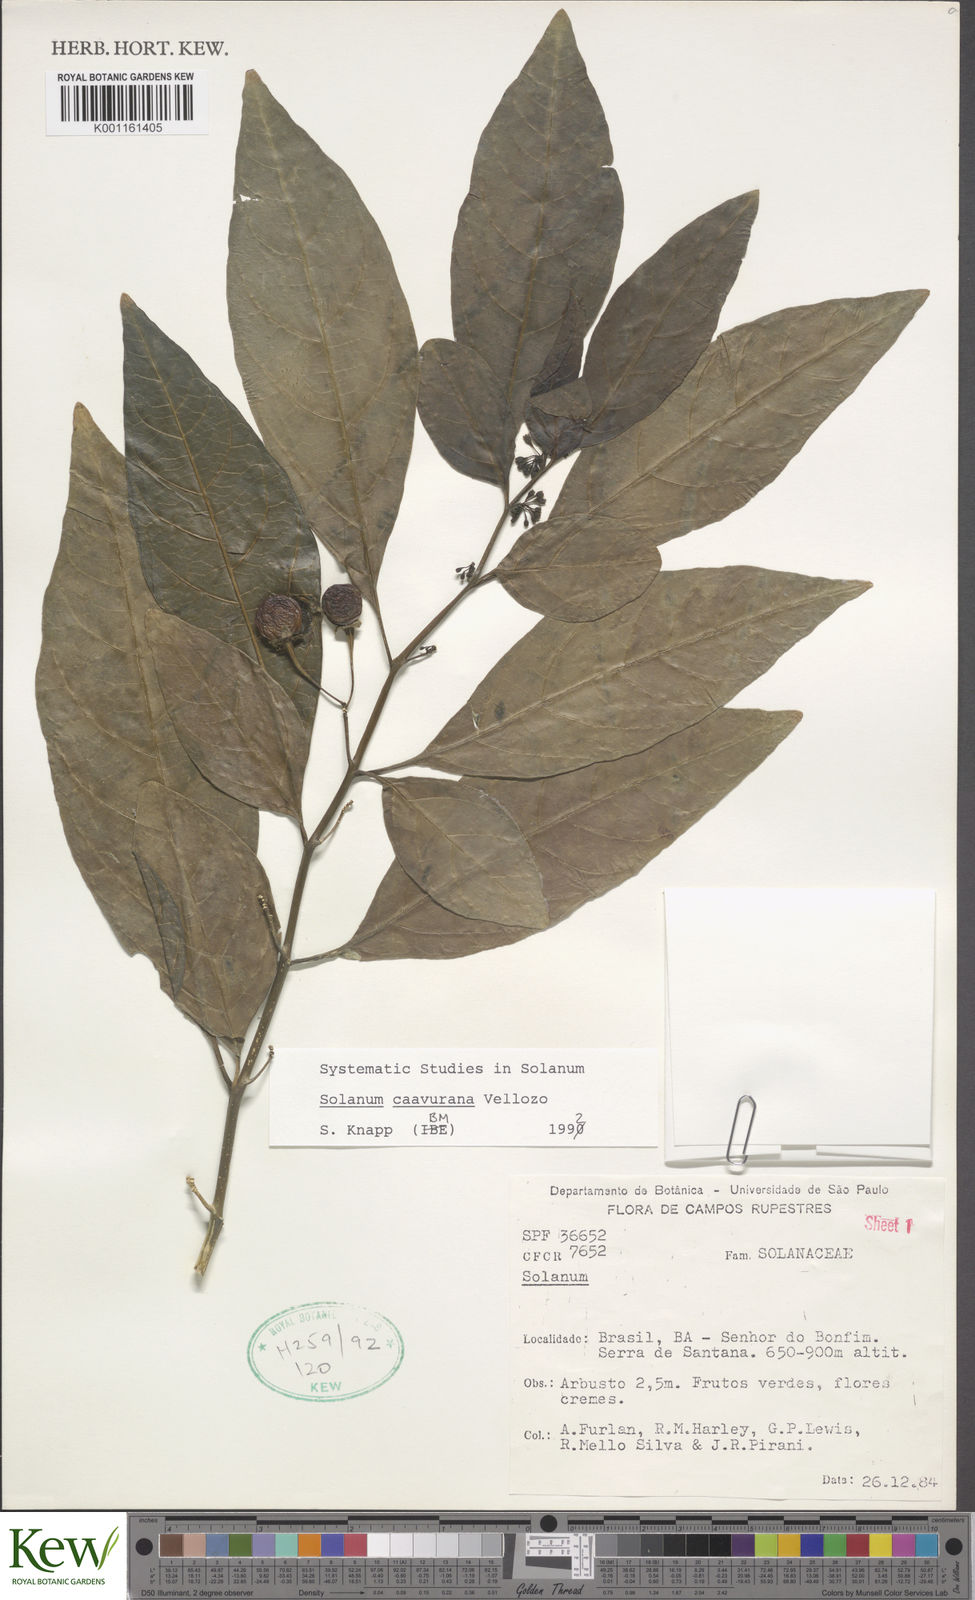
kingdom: Plantae
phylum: Tracheophyta
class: Magnoliopsida
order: Solanales
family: Solanaceae
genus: Solanum
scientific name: Solanum caavurana
